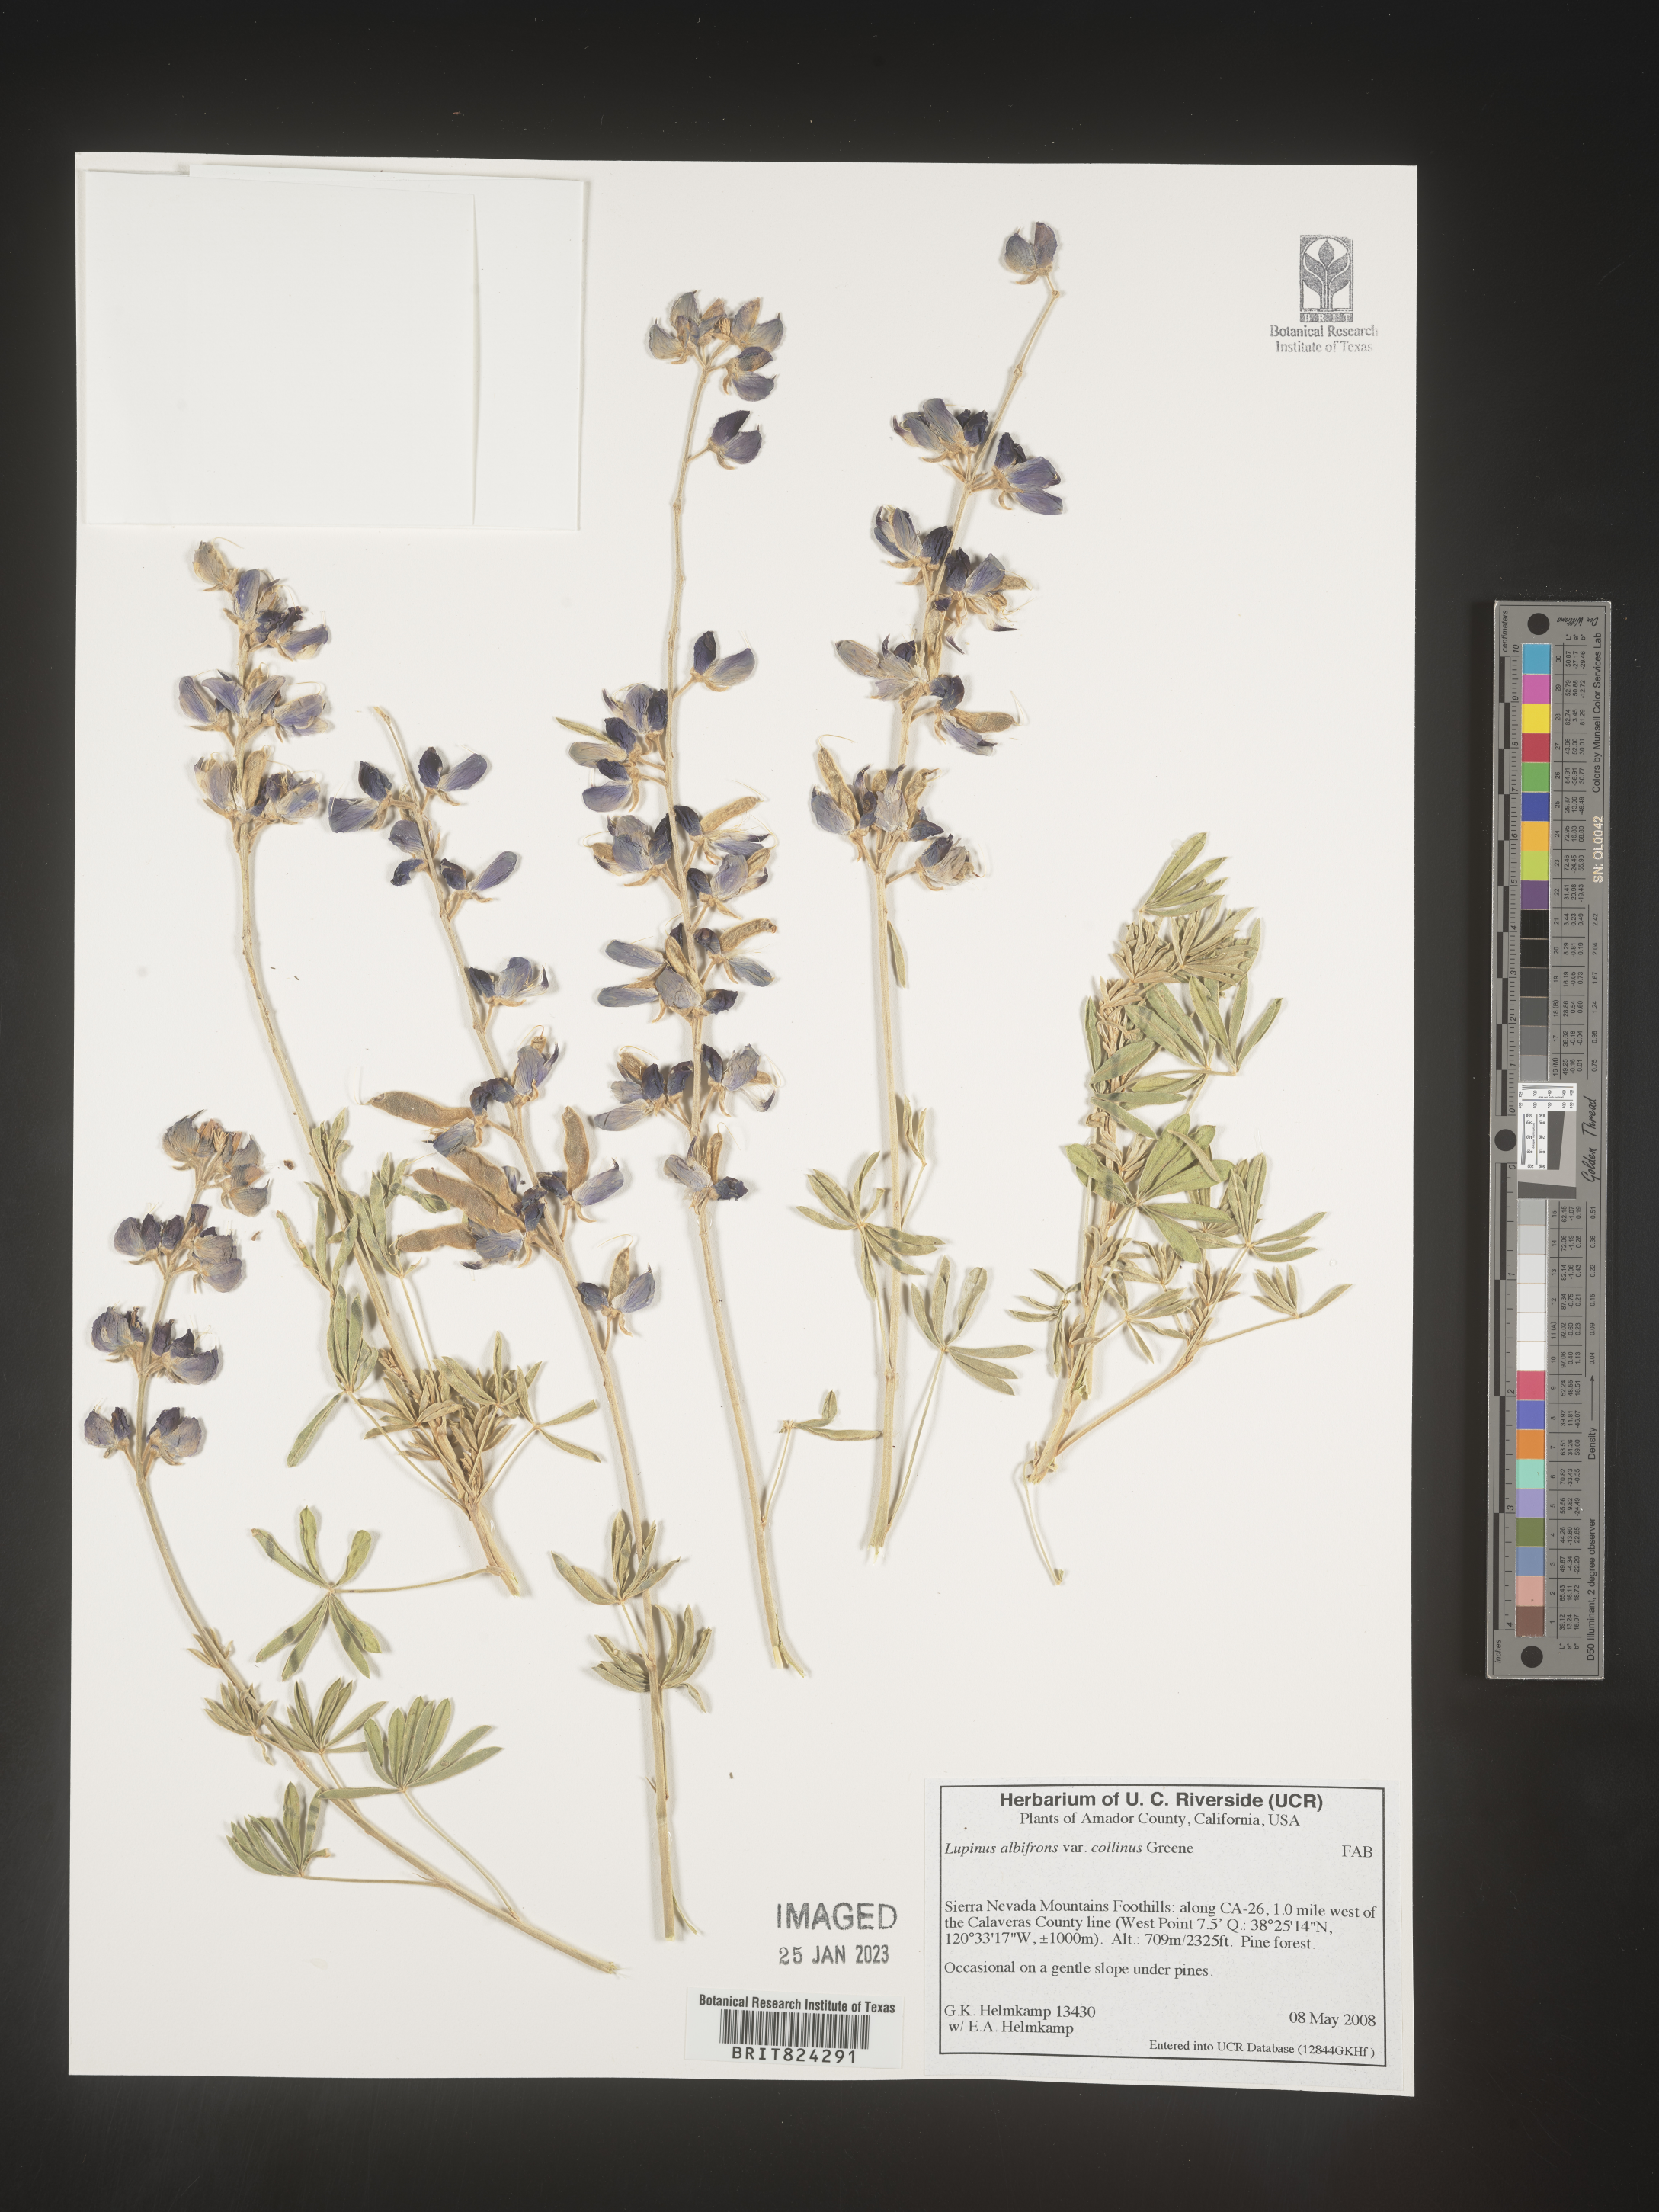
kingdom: Plantae
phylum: Tracheophyta
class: Magnoliopsida
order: Fabales
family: Fabaceae
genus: Lupinus
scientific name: Lupinus albifrons
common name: Foothill lupine
